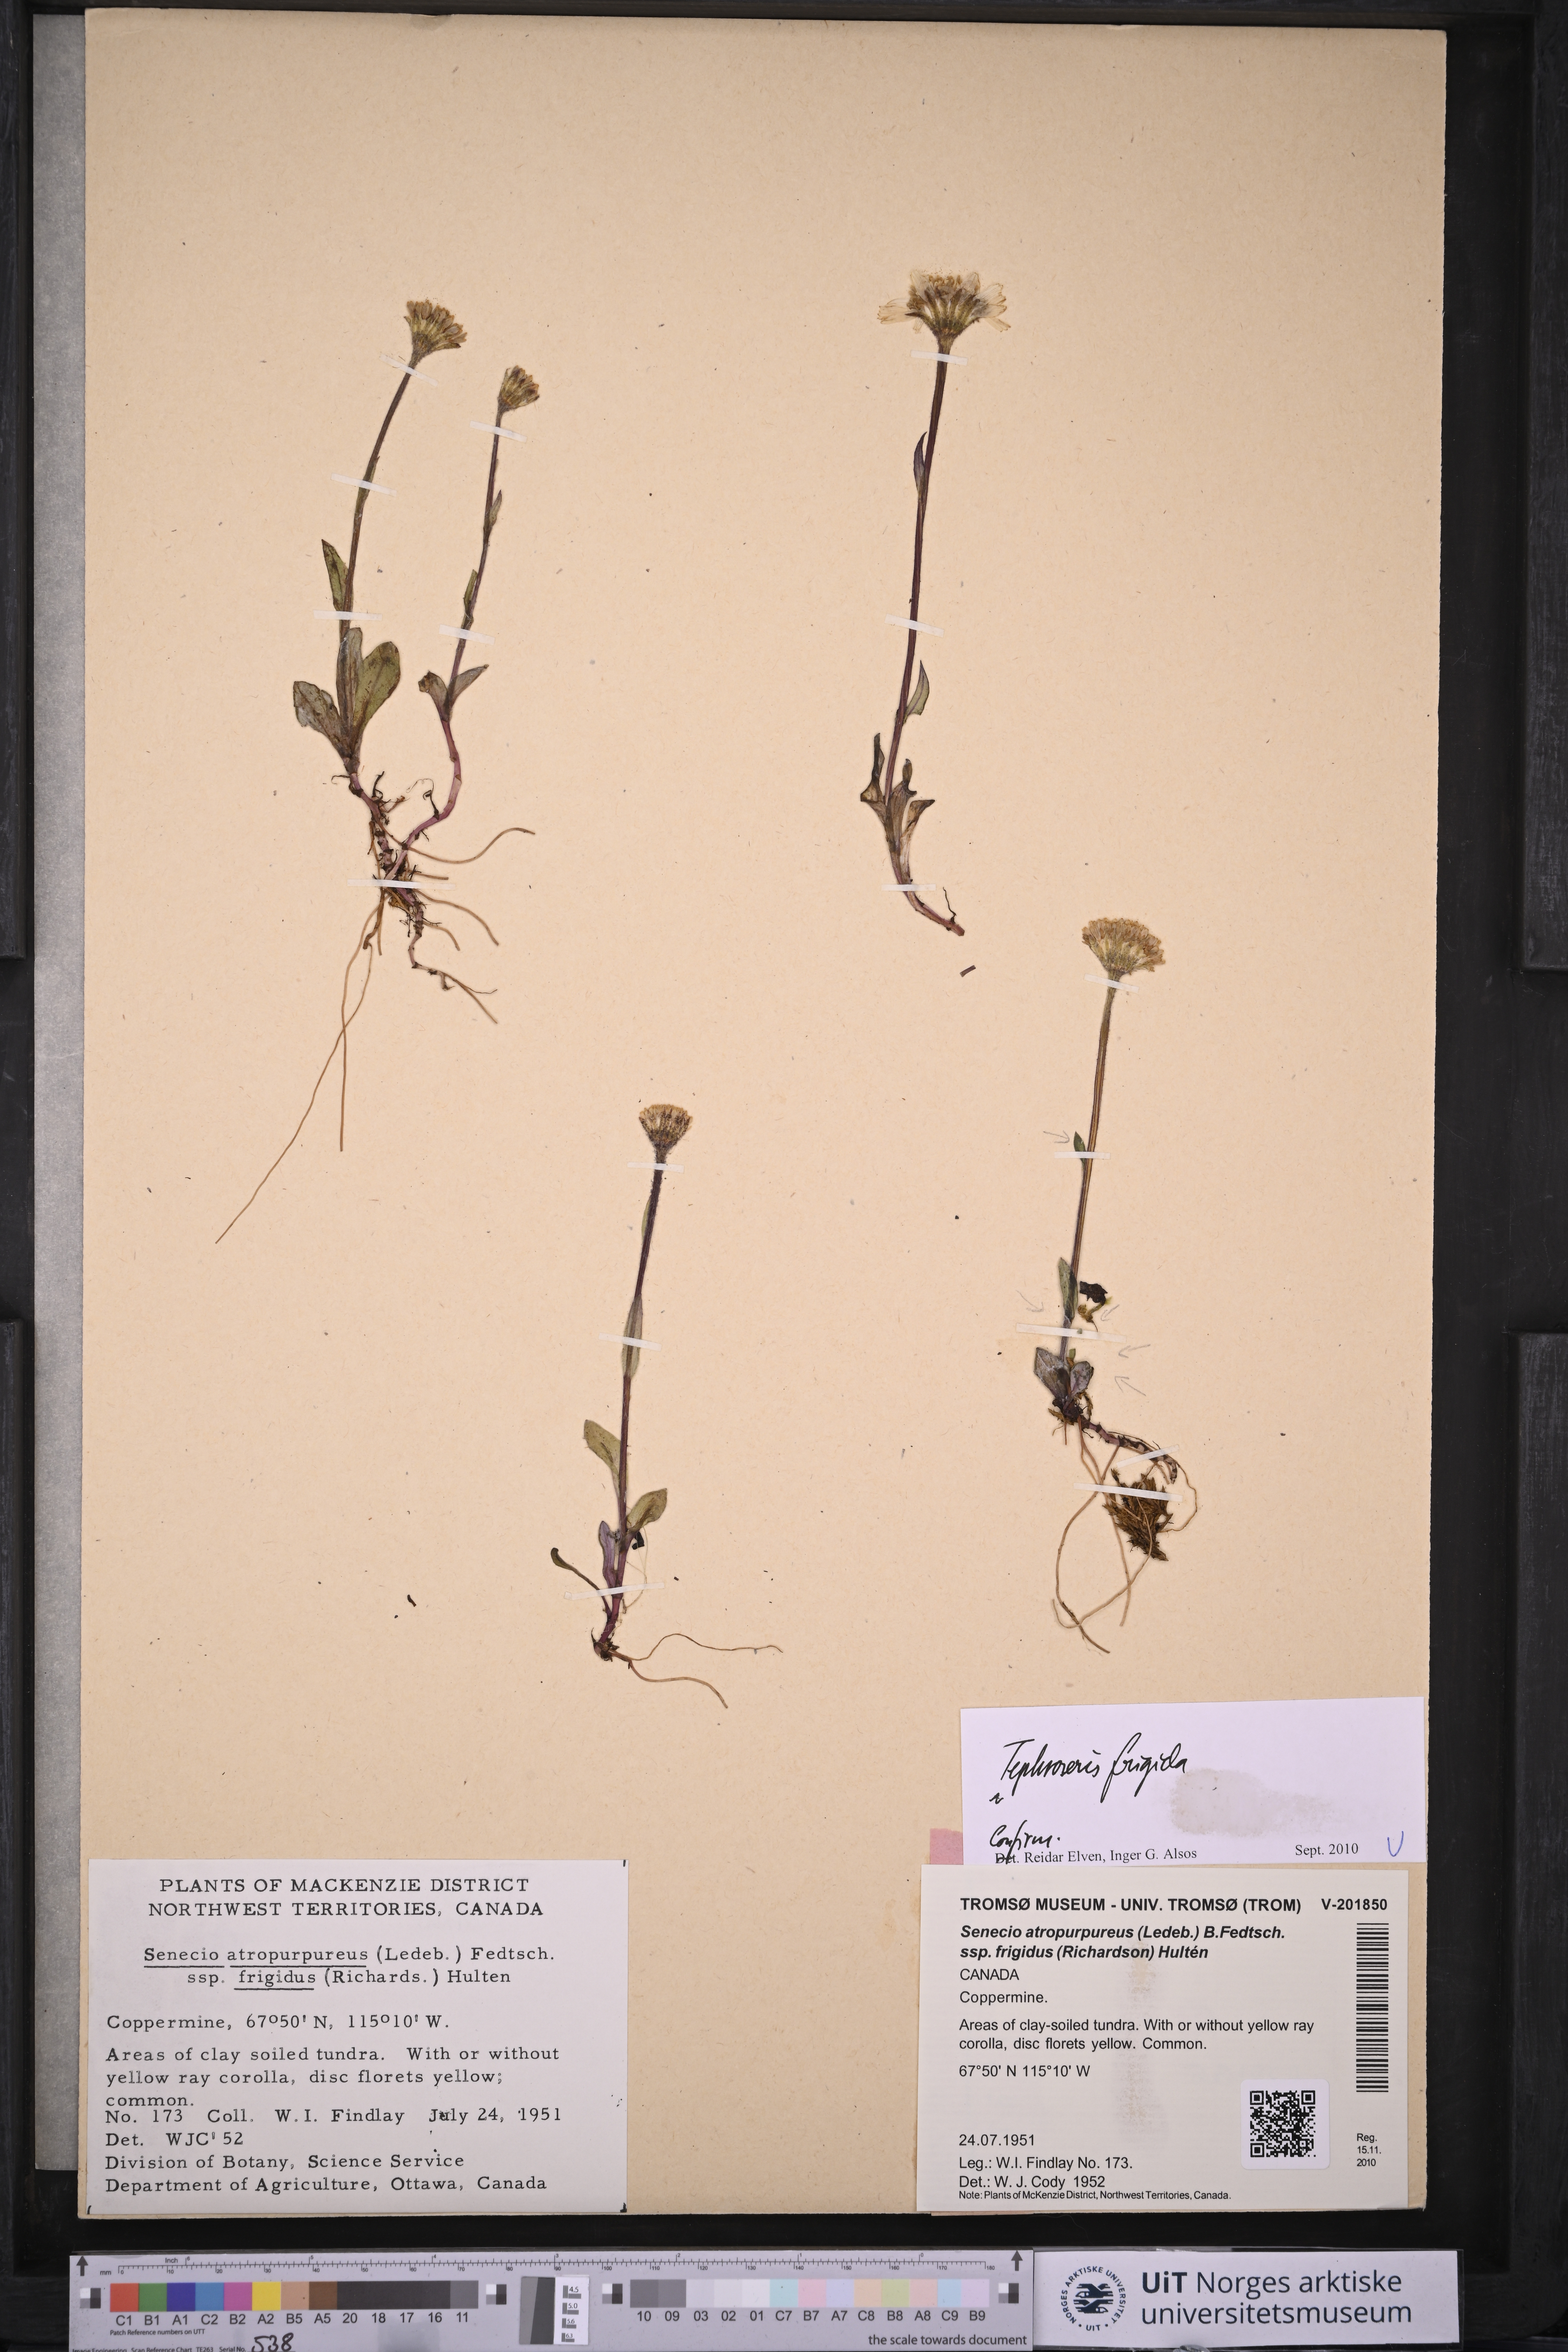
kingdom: Plantae
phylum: Tracheophyta
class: Magnoliopsida
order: Asterales
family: Asteraceae
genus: Tephroseris
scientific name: Tephroseris frigida
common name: Arctic groundsel
